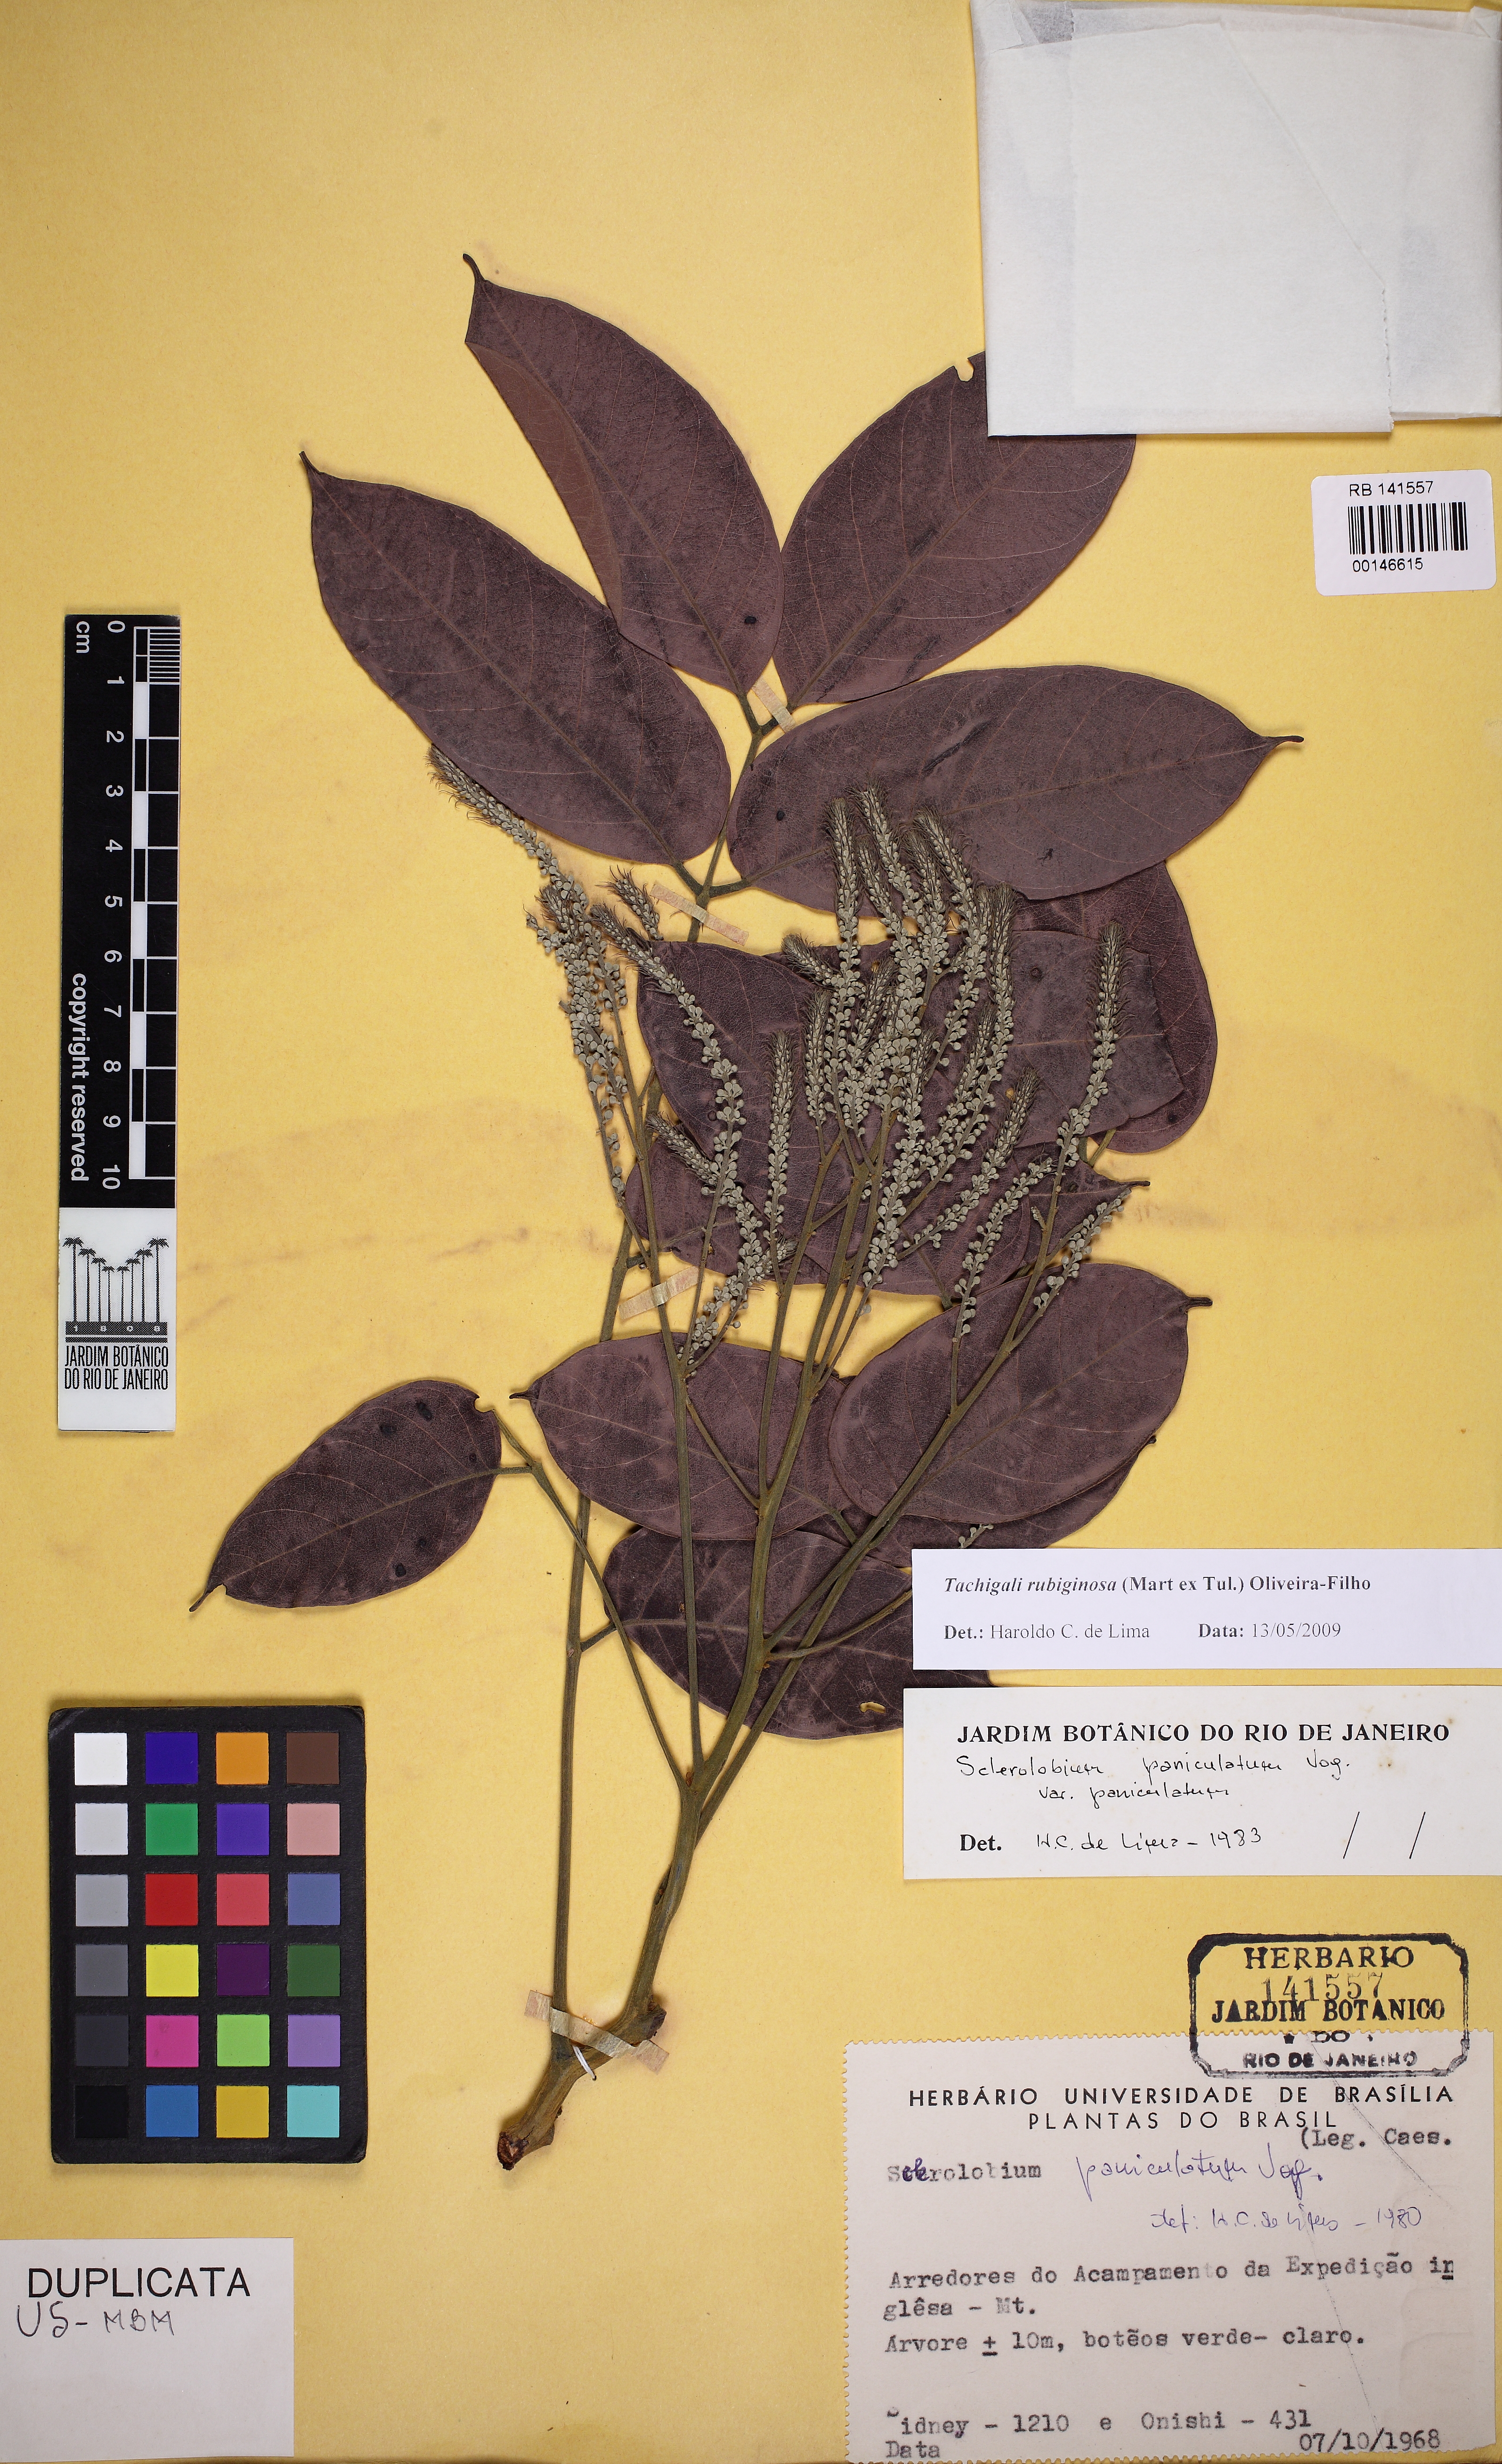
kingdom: Plantae
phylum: Tracheophyta
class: Magnoliopsida
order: Fabales
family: Fabaceae
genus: Tachigali
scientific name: Tachigali rubiginosa
